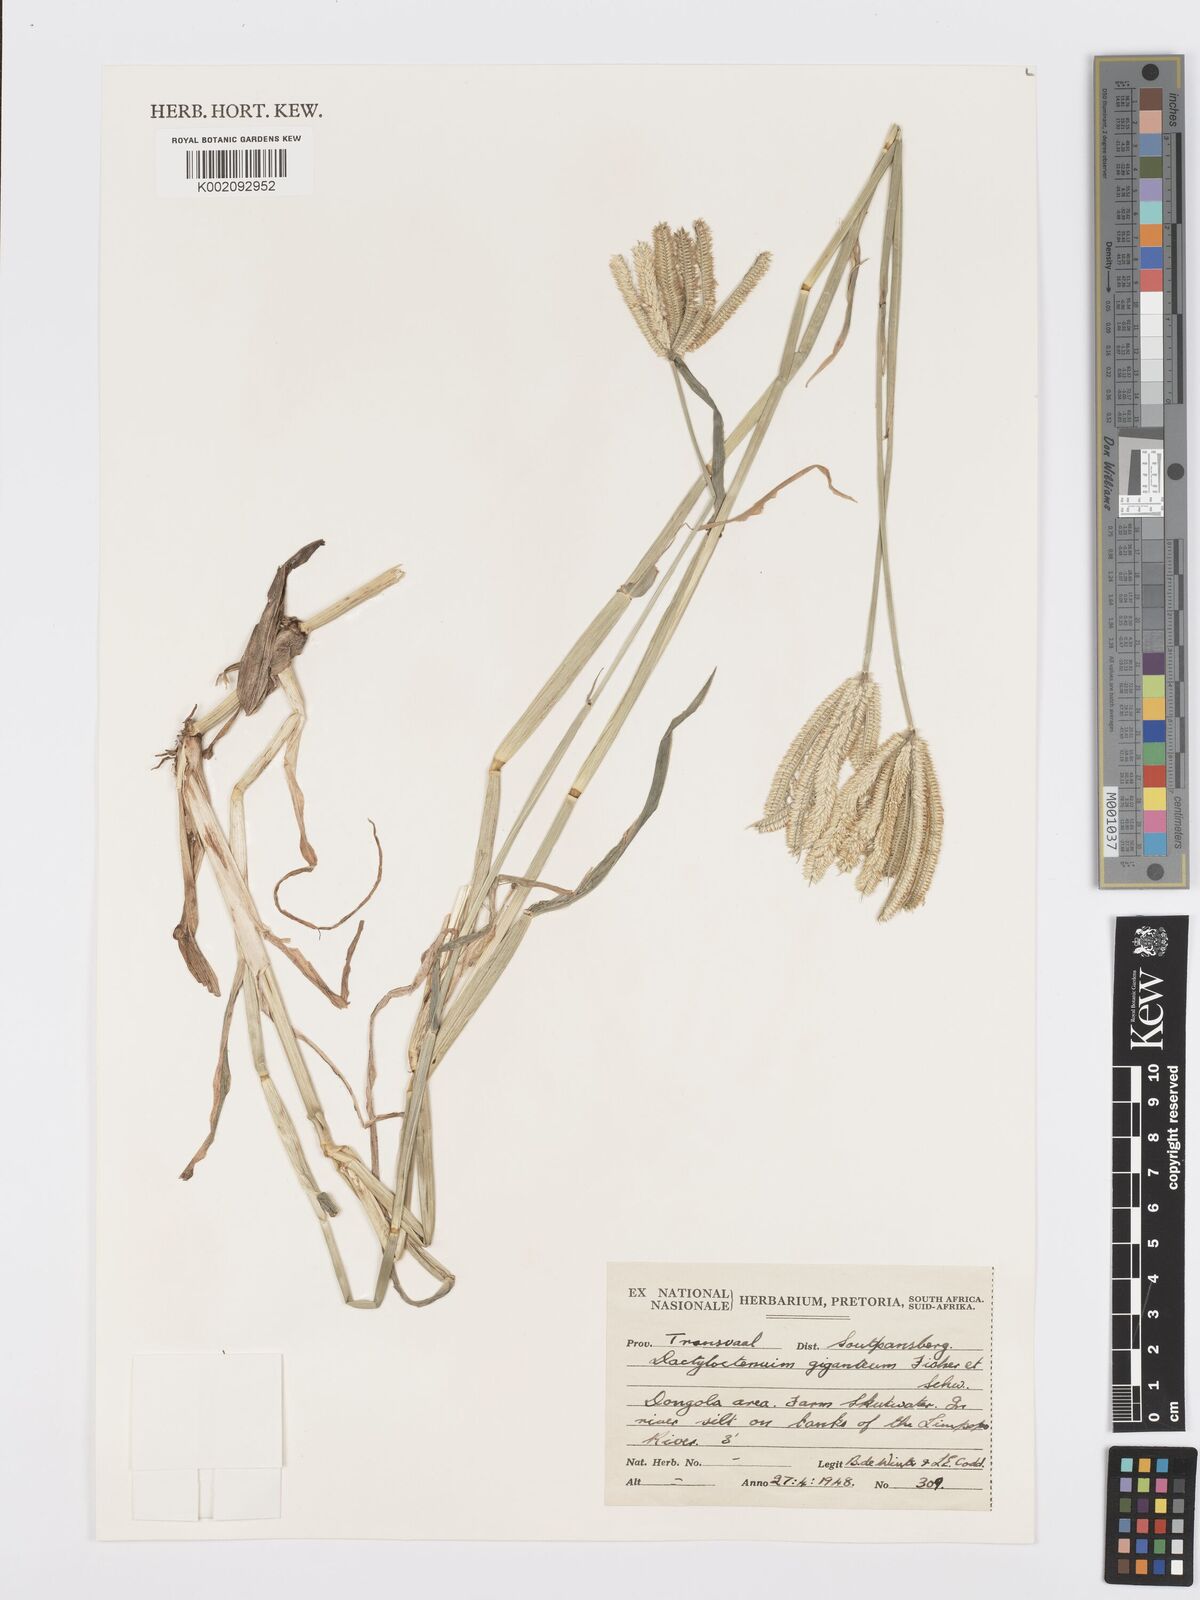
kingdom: Plantae
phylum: Tracheophyta
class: Liliopsida
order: Poales
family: Poaceae
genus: Dactyloctenium
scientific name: Dactyloctenium giganteum
